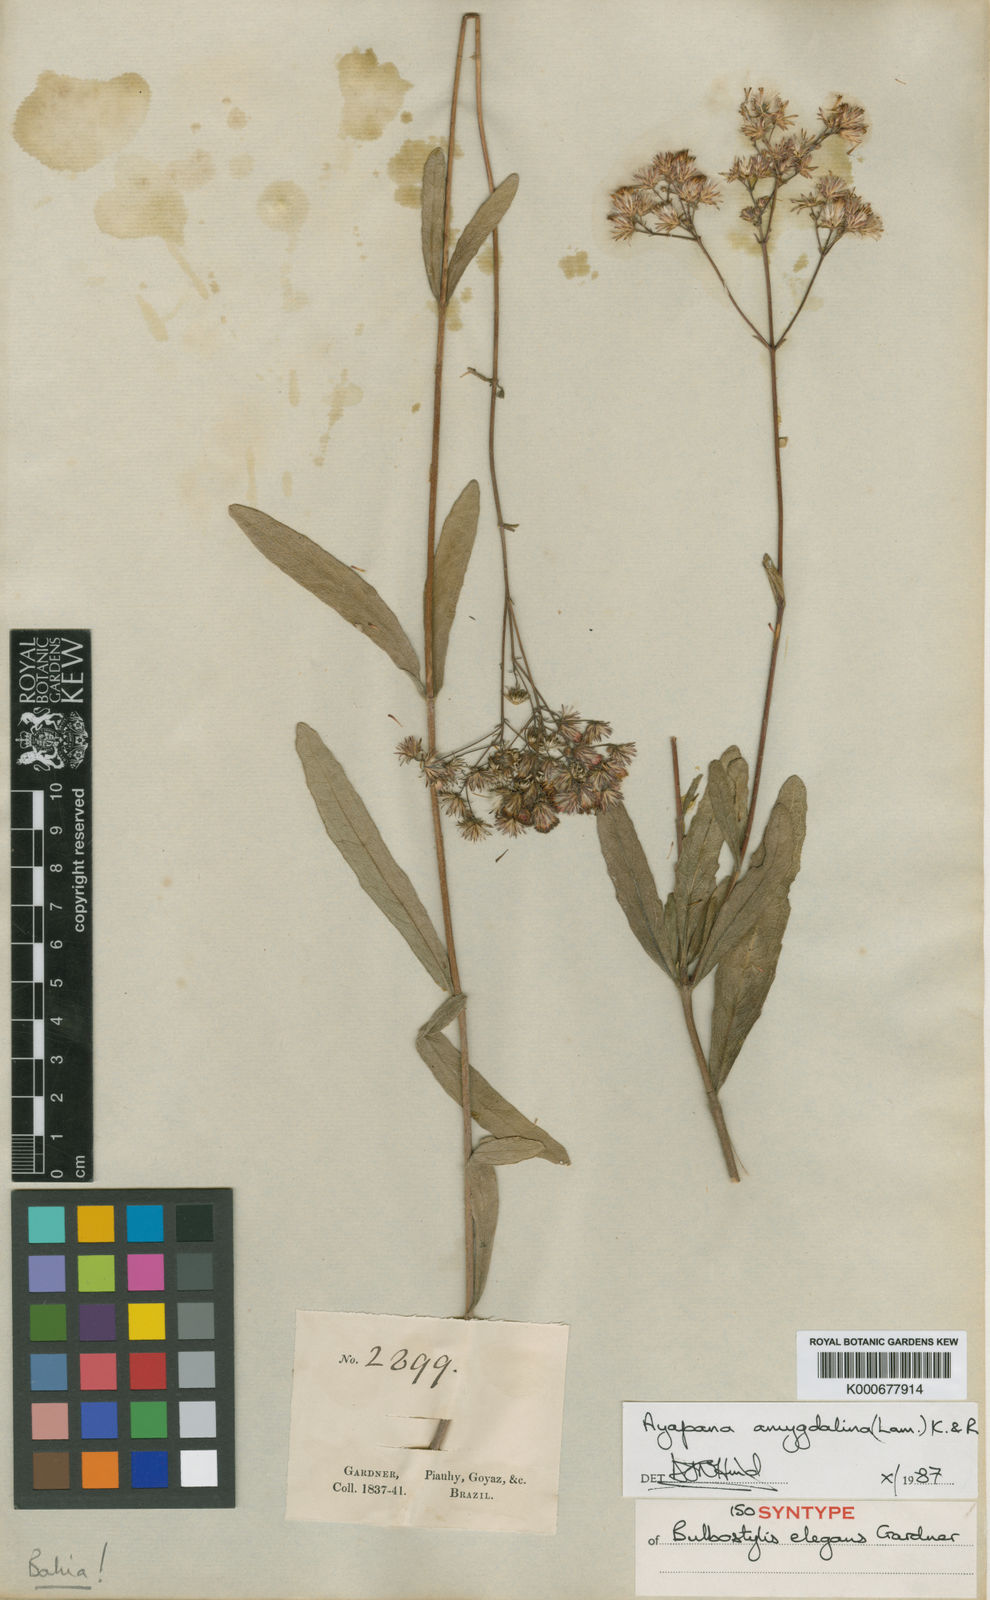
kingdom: Plantae
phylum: Tracheophyta
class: Magnoliopsida
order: Asterales
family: Asteraceae
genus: Ayapana
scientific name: Ayapana amygdalina
